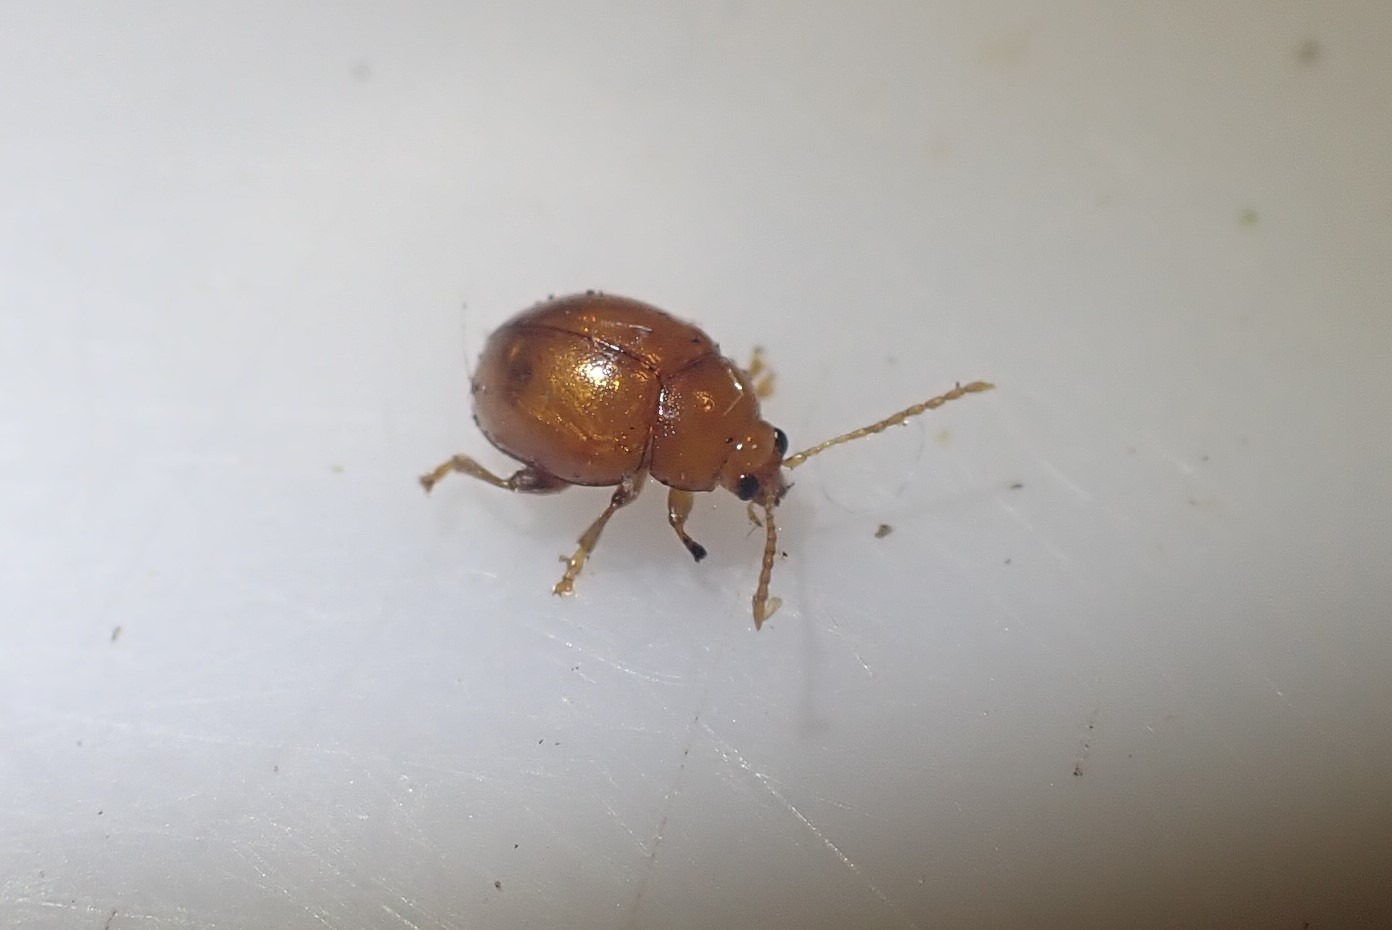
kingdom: Animalia
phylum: Arthropoda
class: Insecta
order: Coleoptera
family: Chrysomelidae
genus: Pistosia
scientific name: Pistosia testacea
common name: Tidselkuglebille
